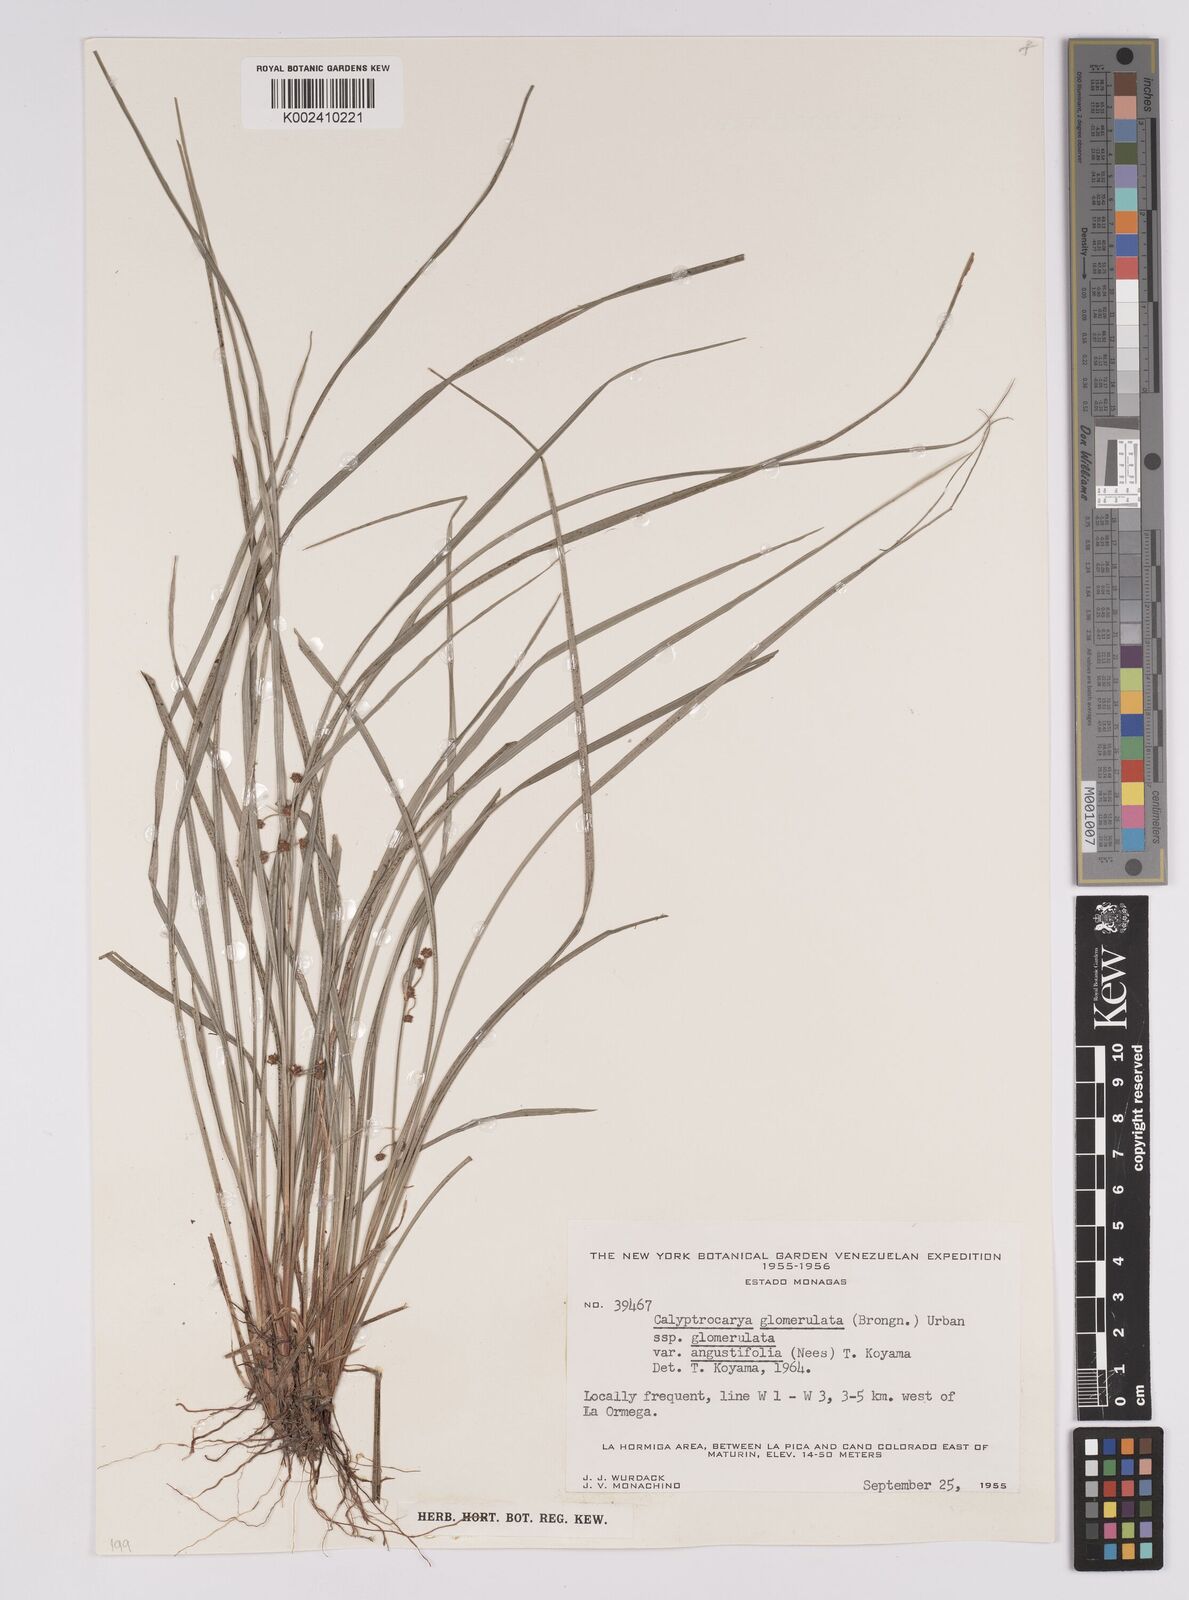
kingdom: Plantae
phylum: Tracheophyta
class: Liliopsida
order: Poales
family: Cyperaceae
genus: Calyptrocarya
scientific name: Calyptrocarya glomerulata
